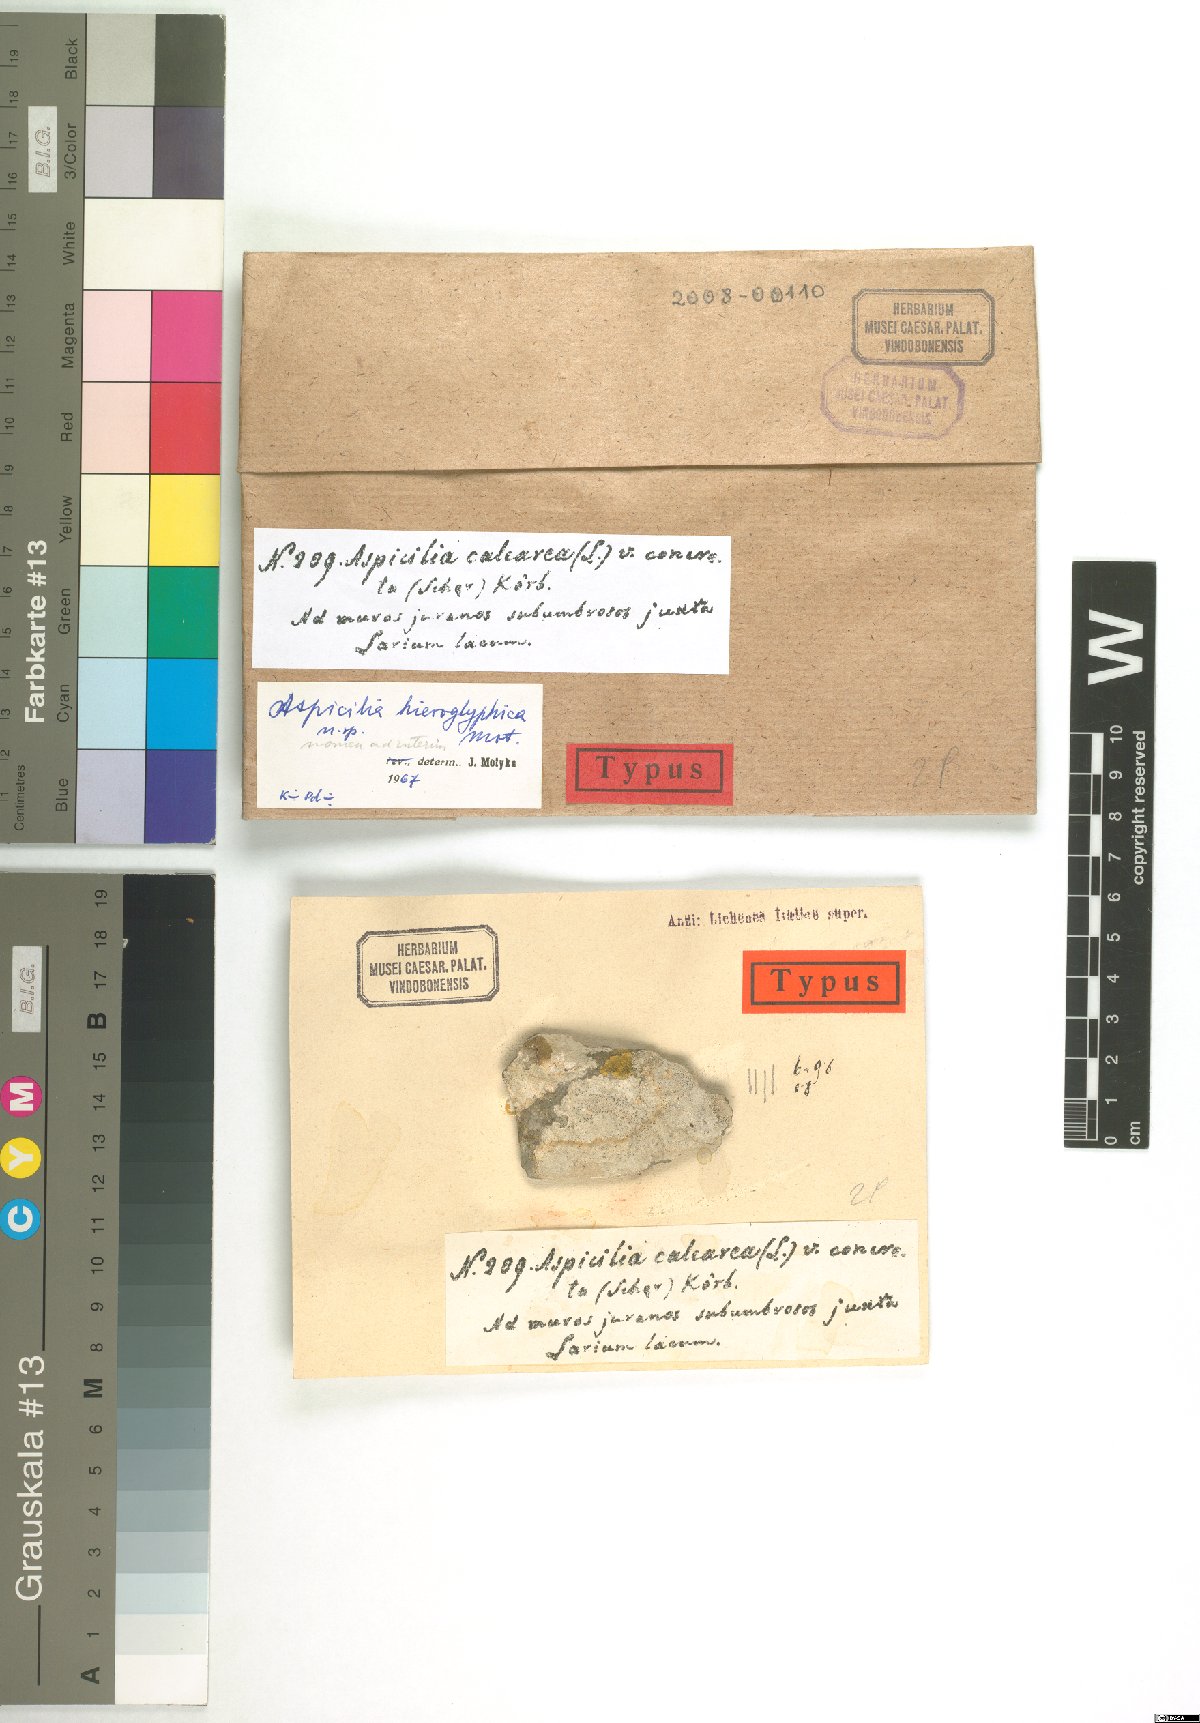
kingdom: Fungi
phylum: Ascomycota
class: Lecanoromycetes
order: Hymeneliales
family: Hymeneliaceae
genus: Aspicilia
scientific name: Aspicilia
